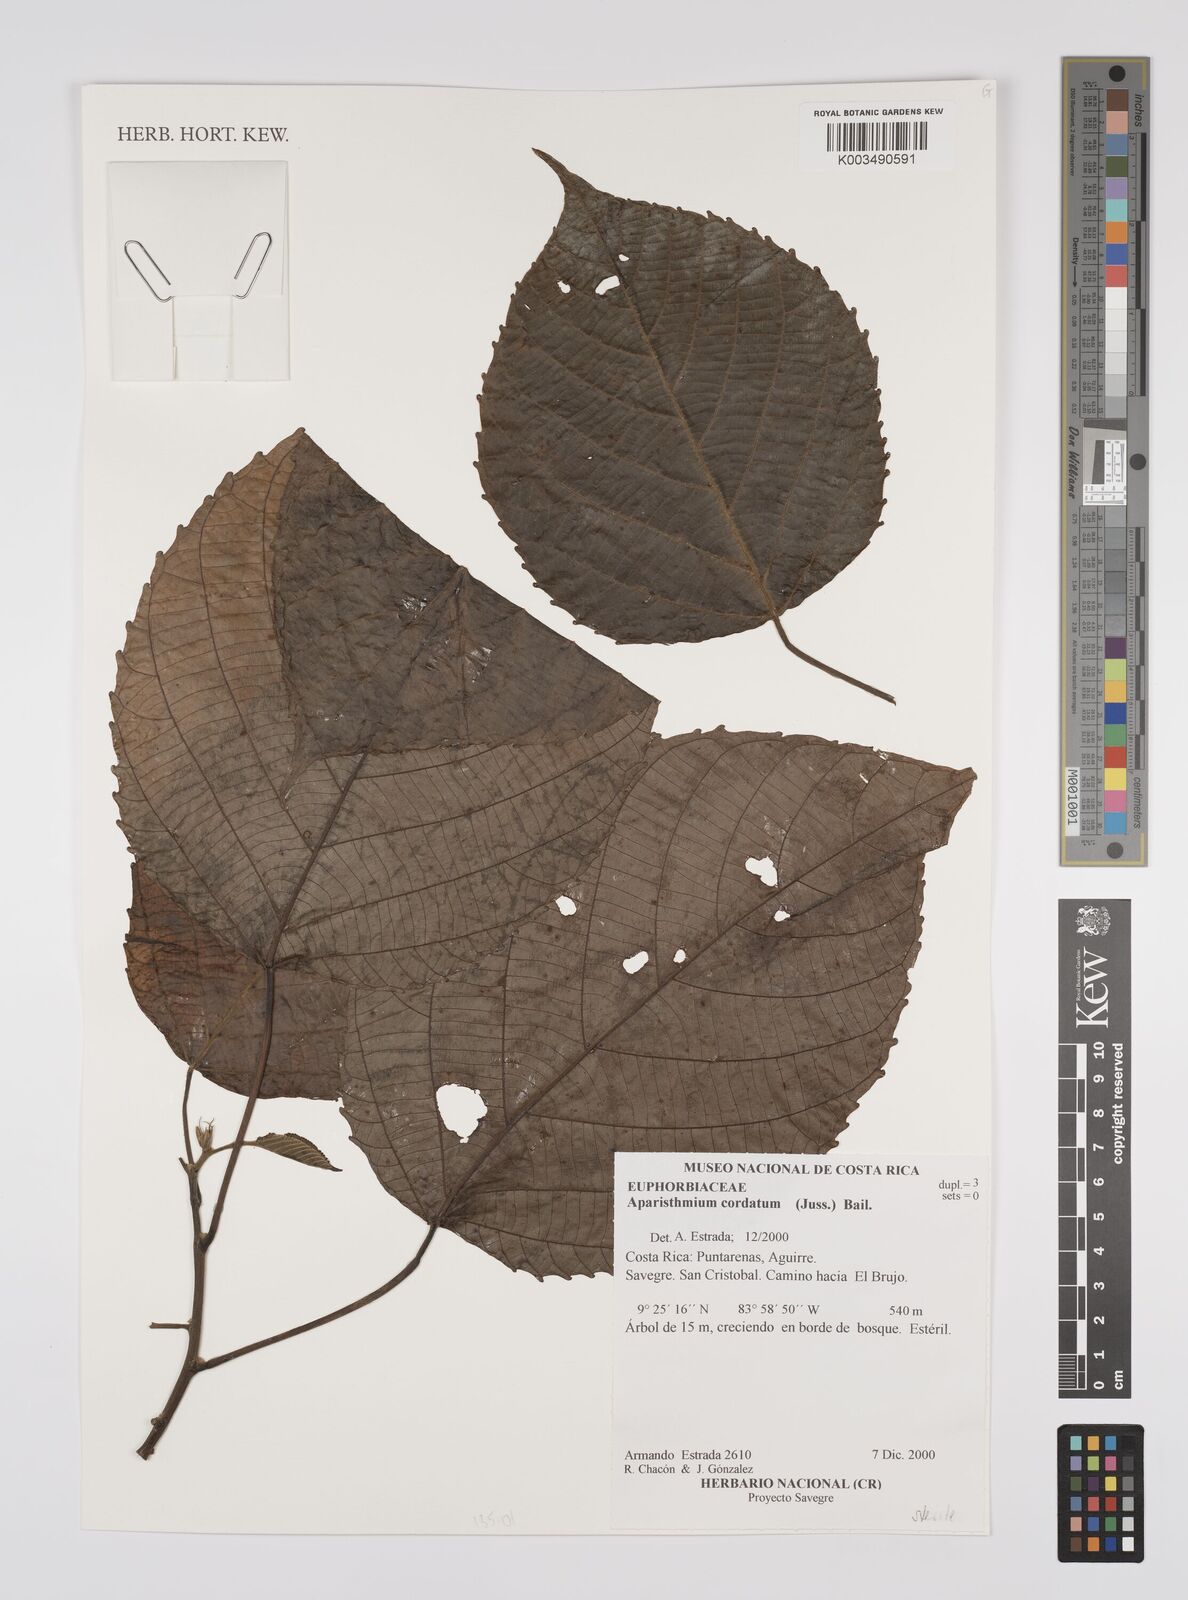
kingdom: Plantae
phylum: Tracheophyta
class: Magnoliopsida
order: Malpighiales
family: Euphorbiaceae
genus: Aparisthmium
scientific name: Aparisthmium cordatum
